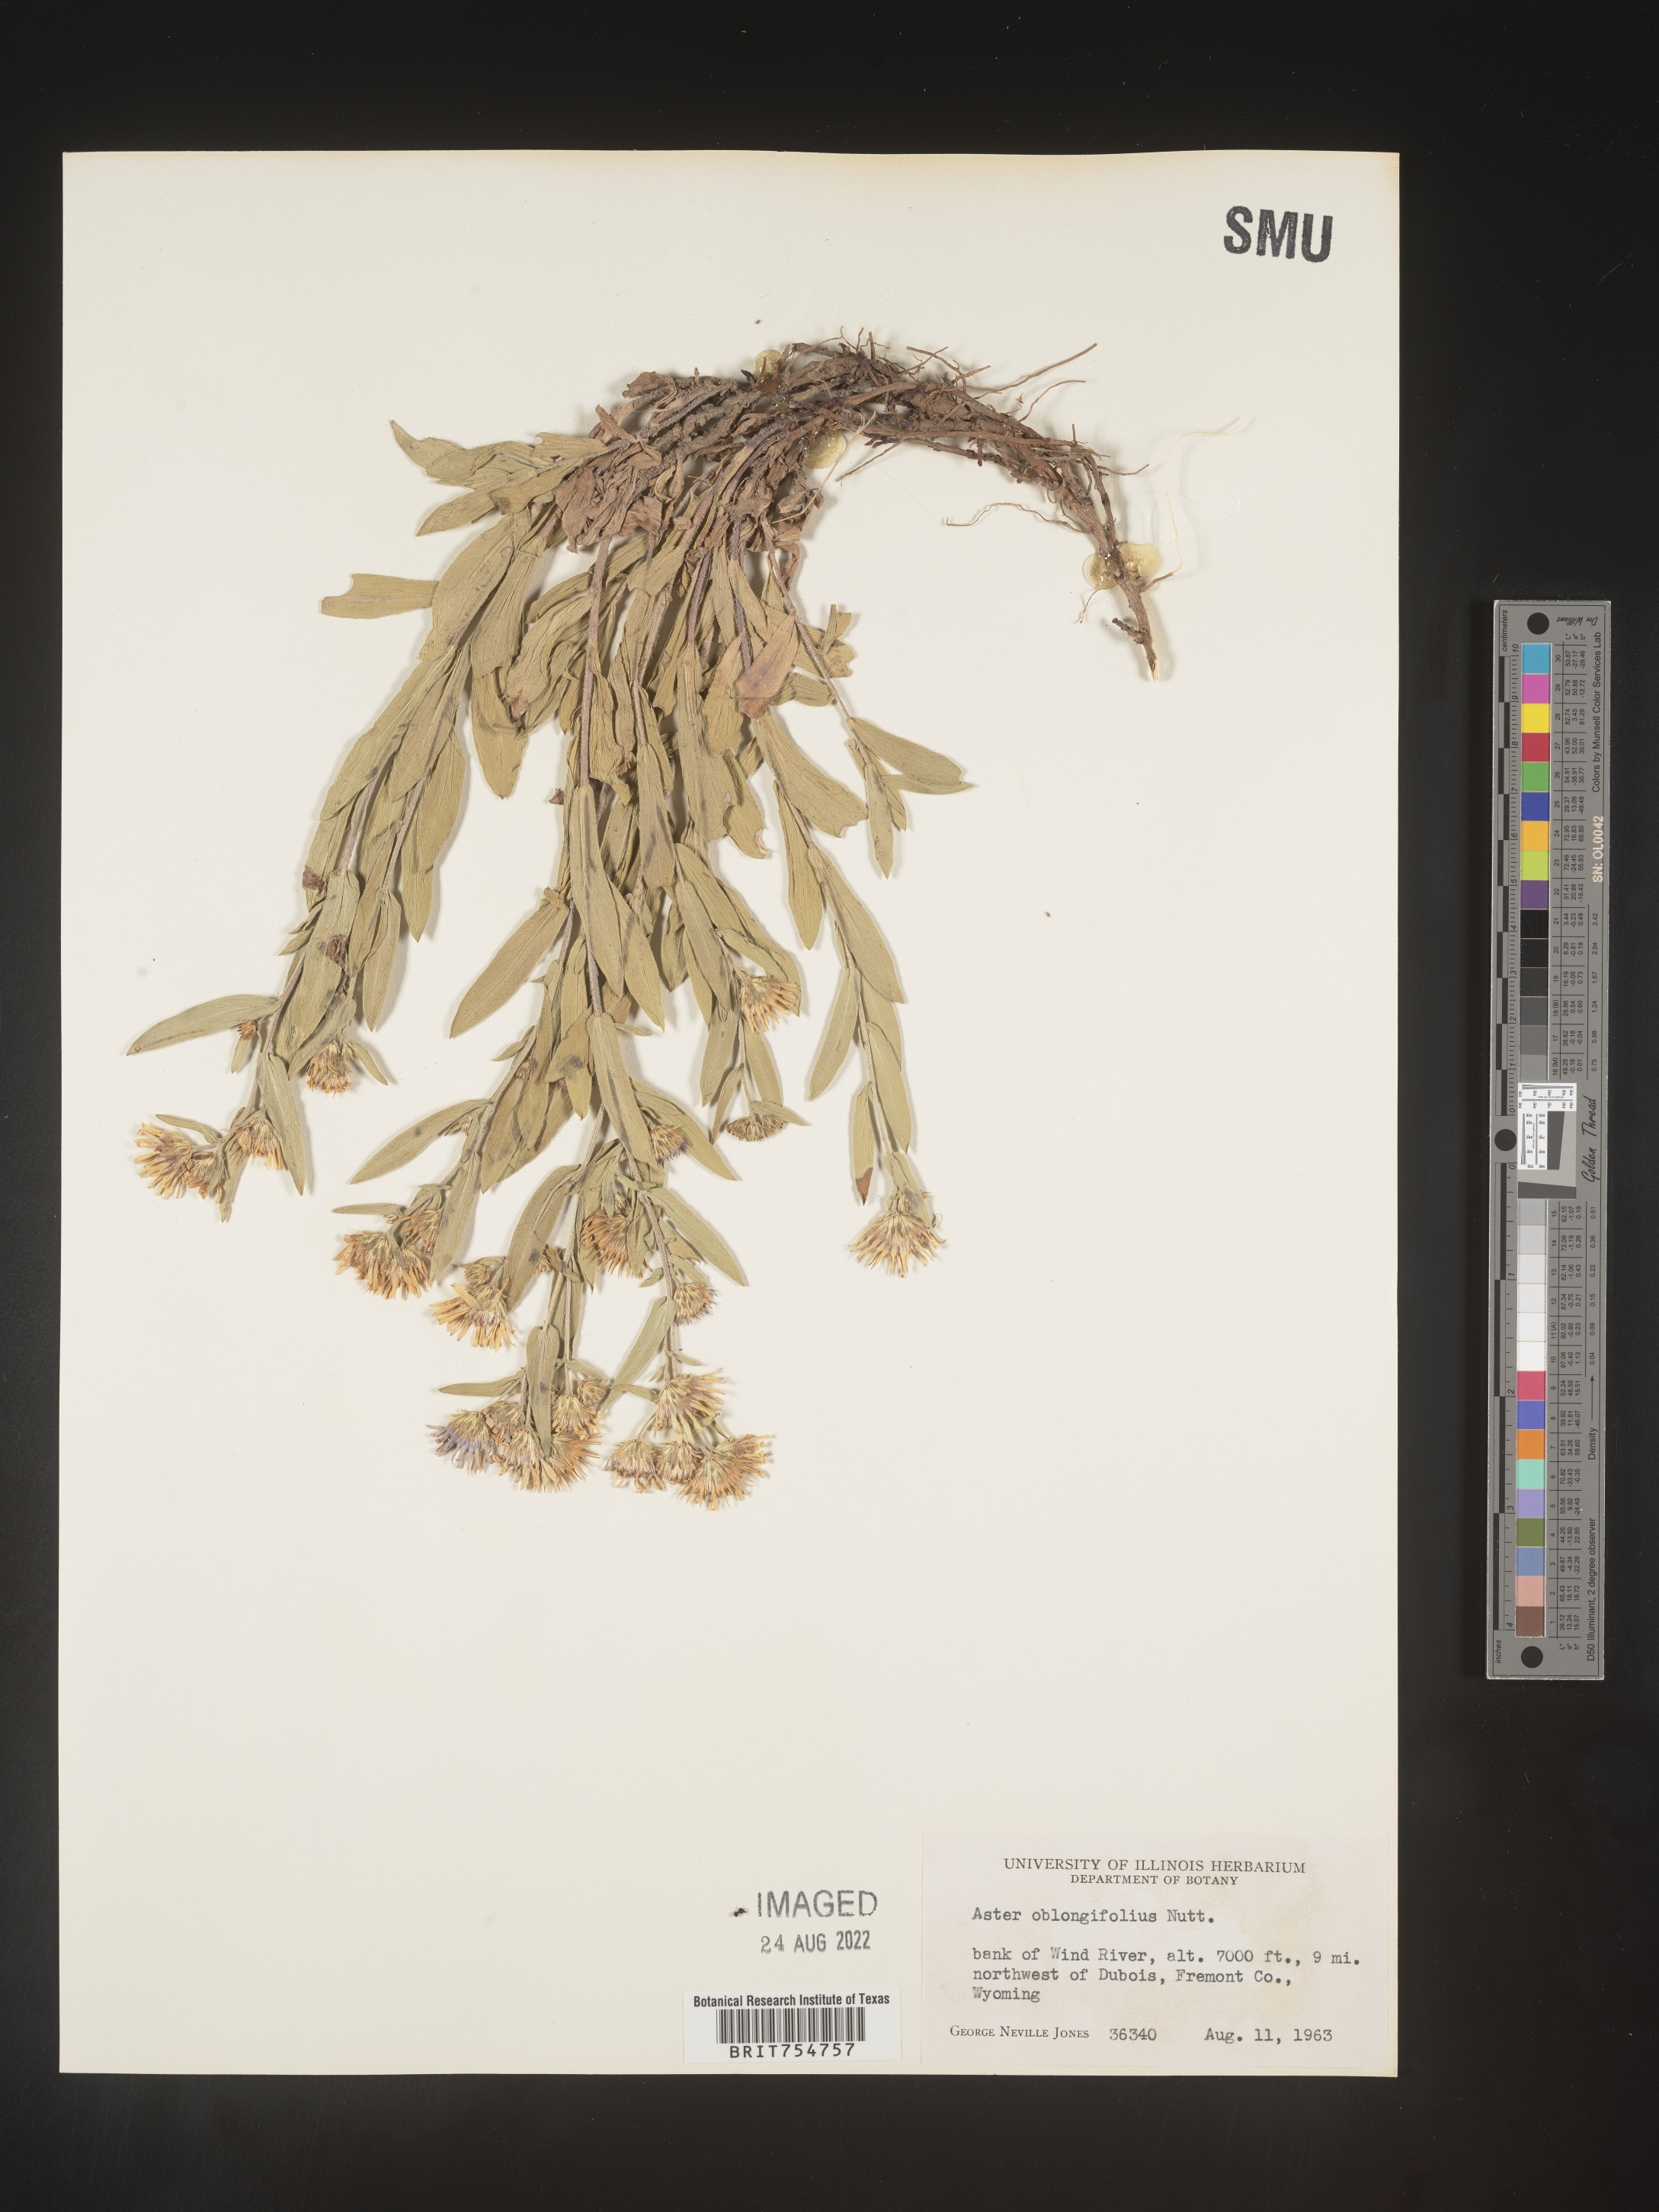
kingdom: Plantae
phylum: Tracheophyta
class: Magnoliopsida
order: Asterales
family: Asteraceae
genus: Symphyotrichum
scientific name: Symphyotrichum
